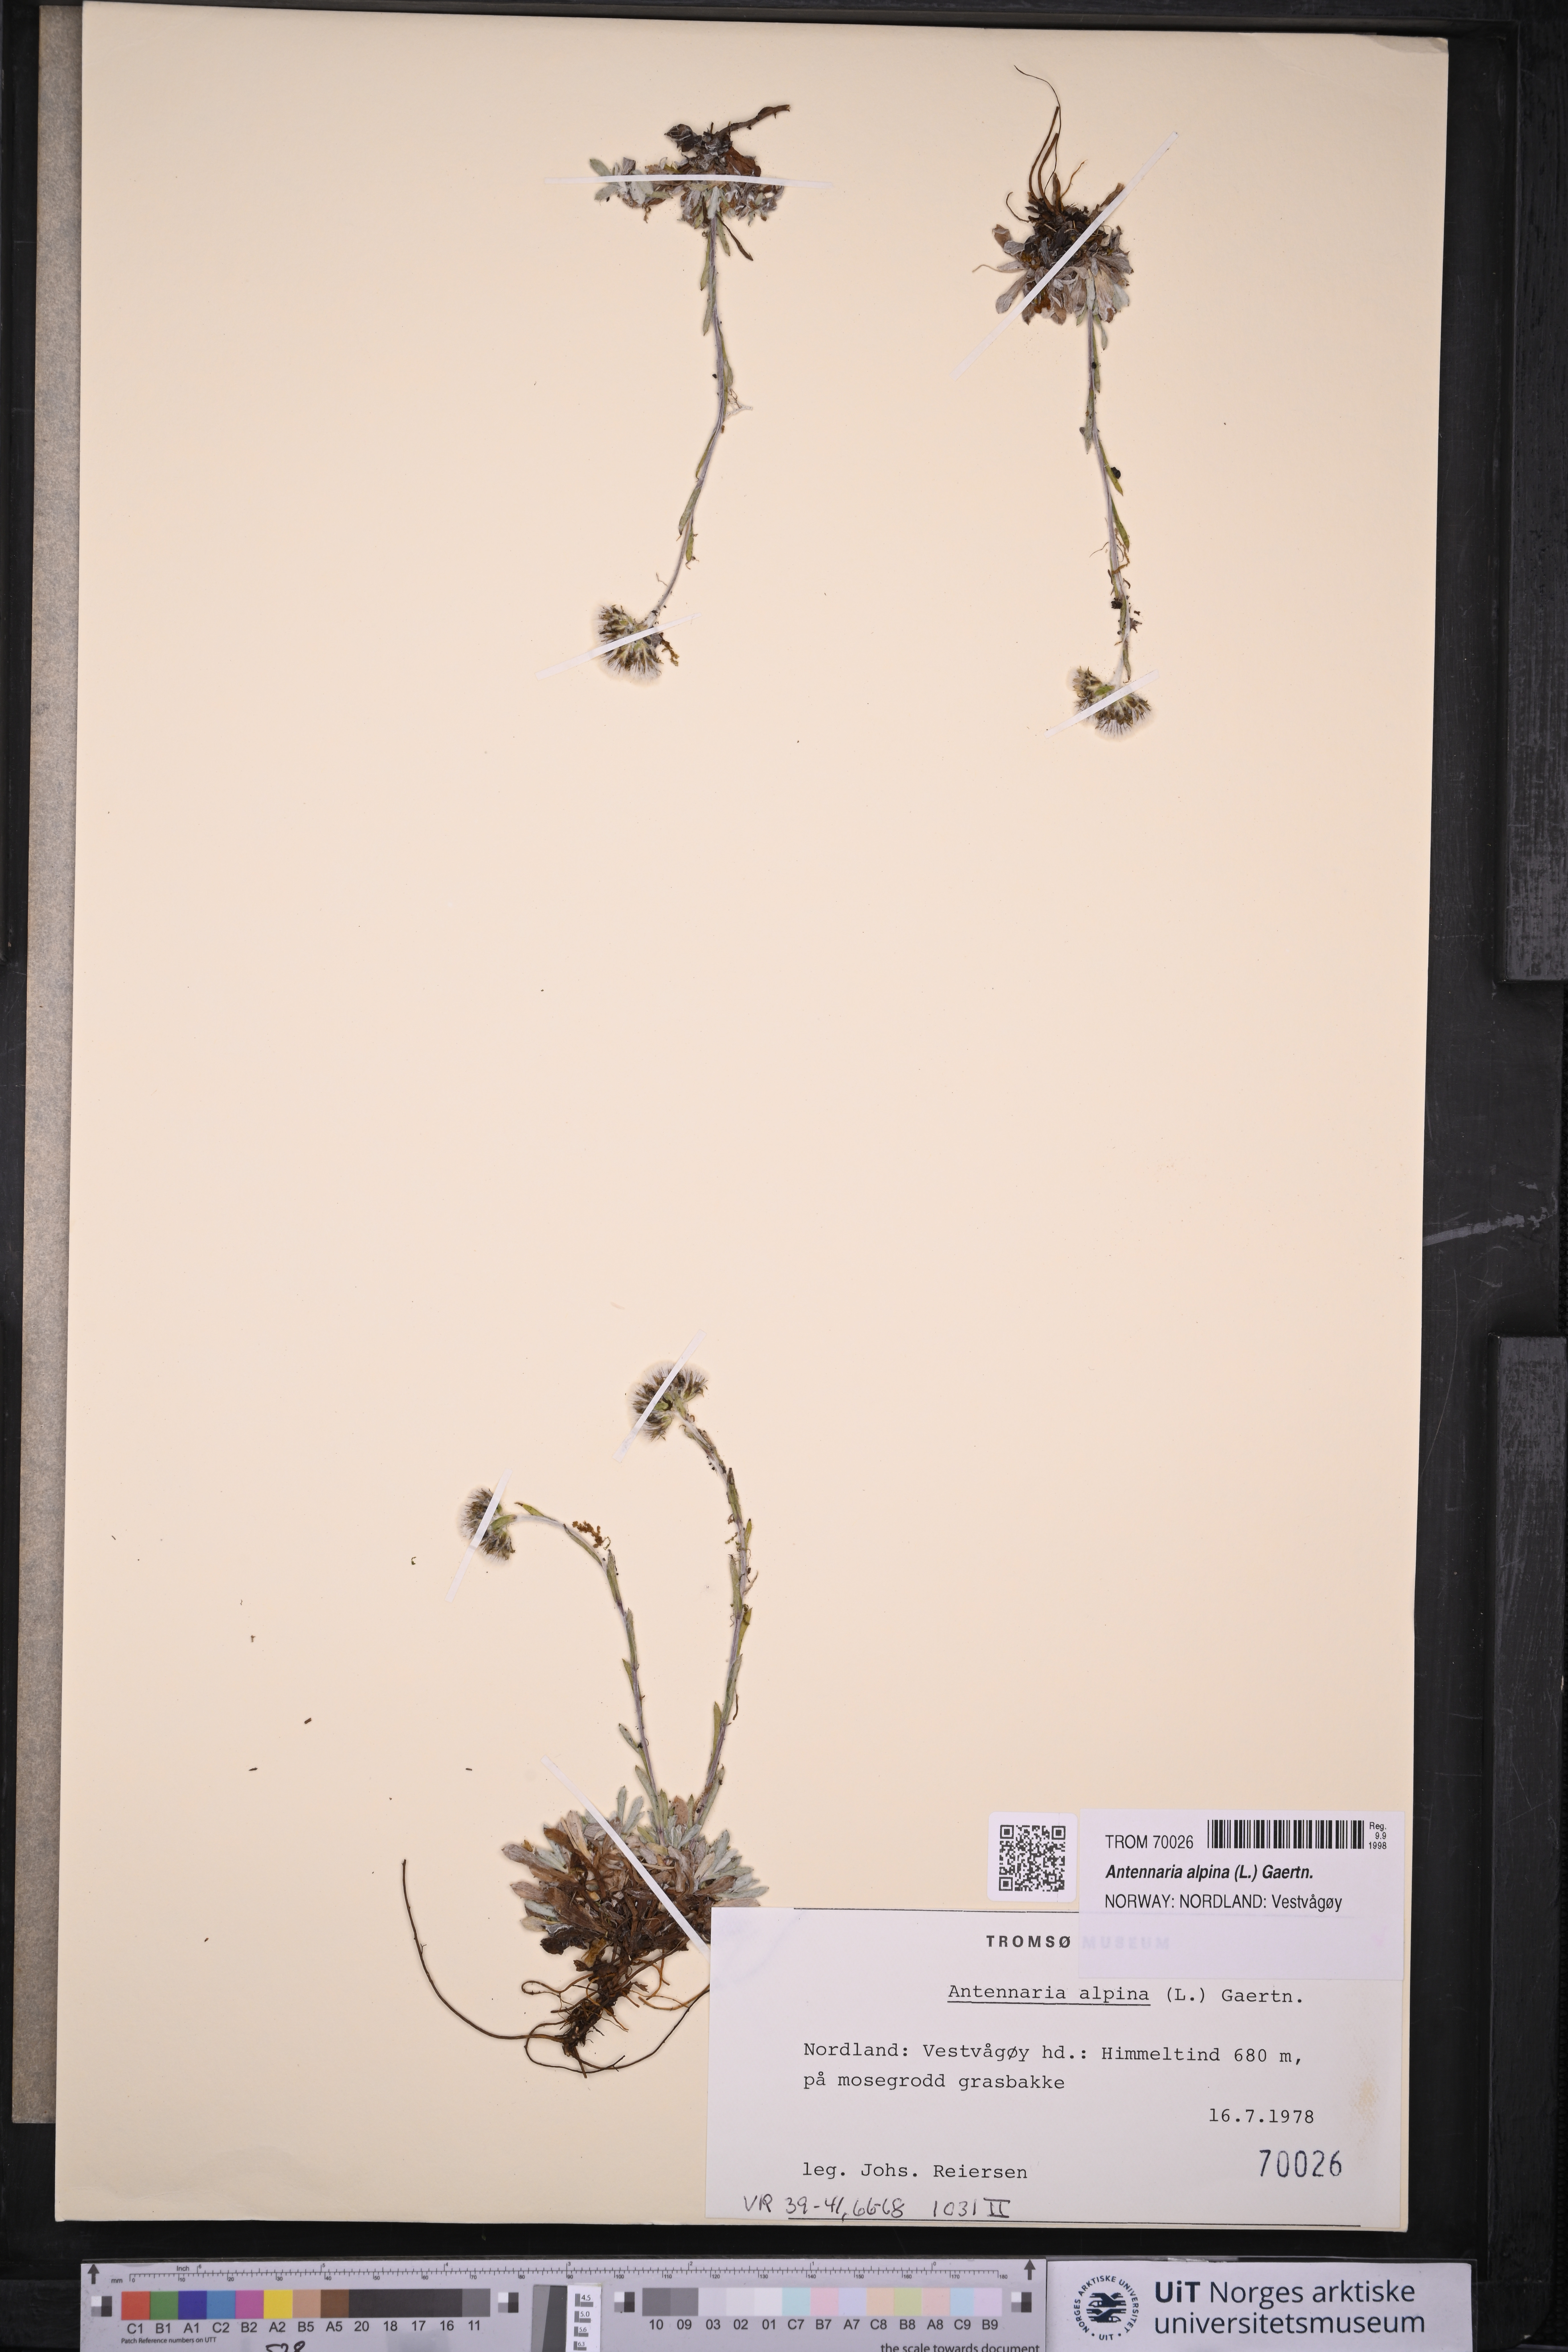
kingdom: Plantae
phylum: Tracheophyta
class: Magnoliopsida
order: Asterales
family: Asteraceae
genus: Antennaria
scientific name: Antennaria alpina
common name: Alpine pussytoes
